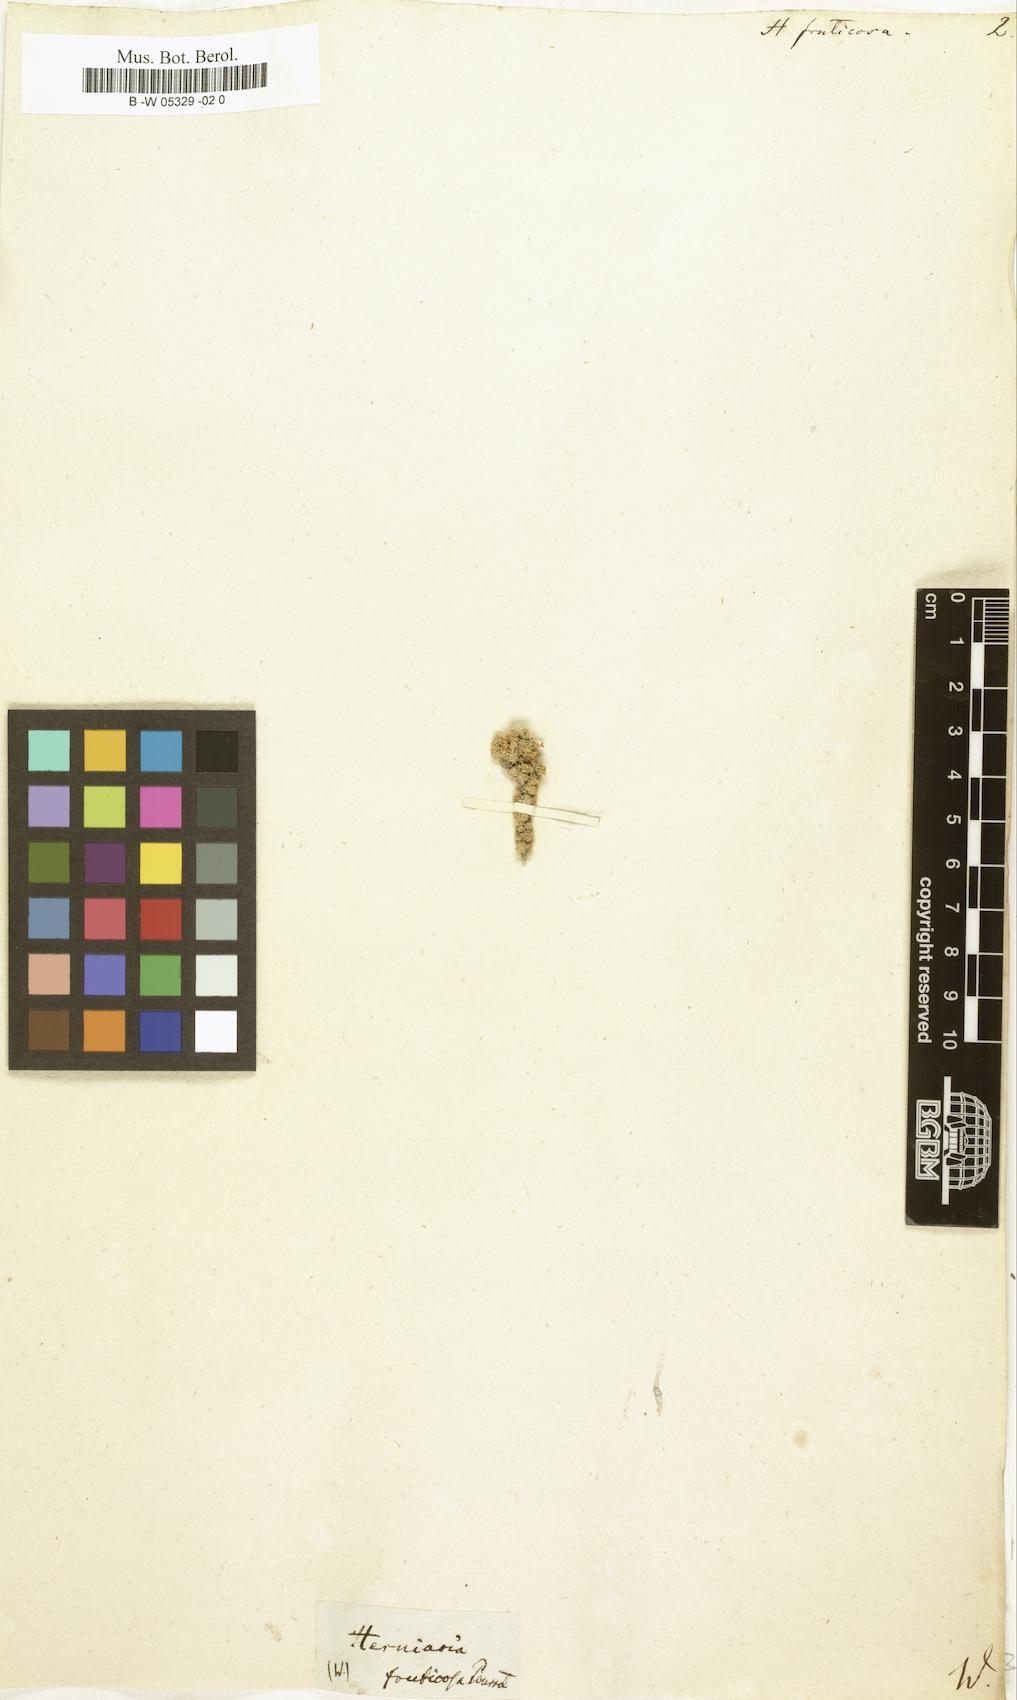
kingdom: Plantae
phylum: Tracheophyta
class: Magnoliopsida
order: Caryophyllales
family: Caryophyllaceae
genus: Herniaria
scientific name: Herniaria fruticosa
